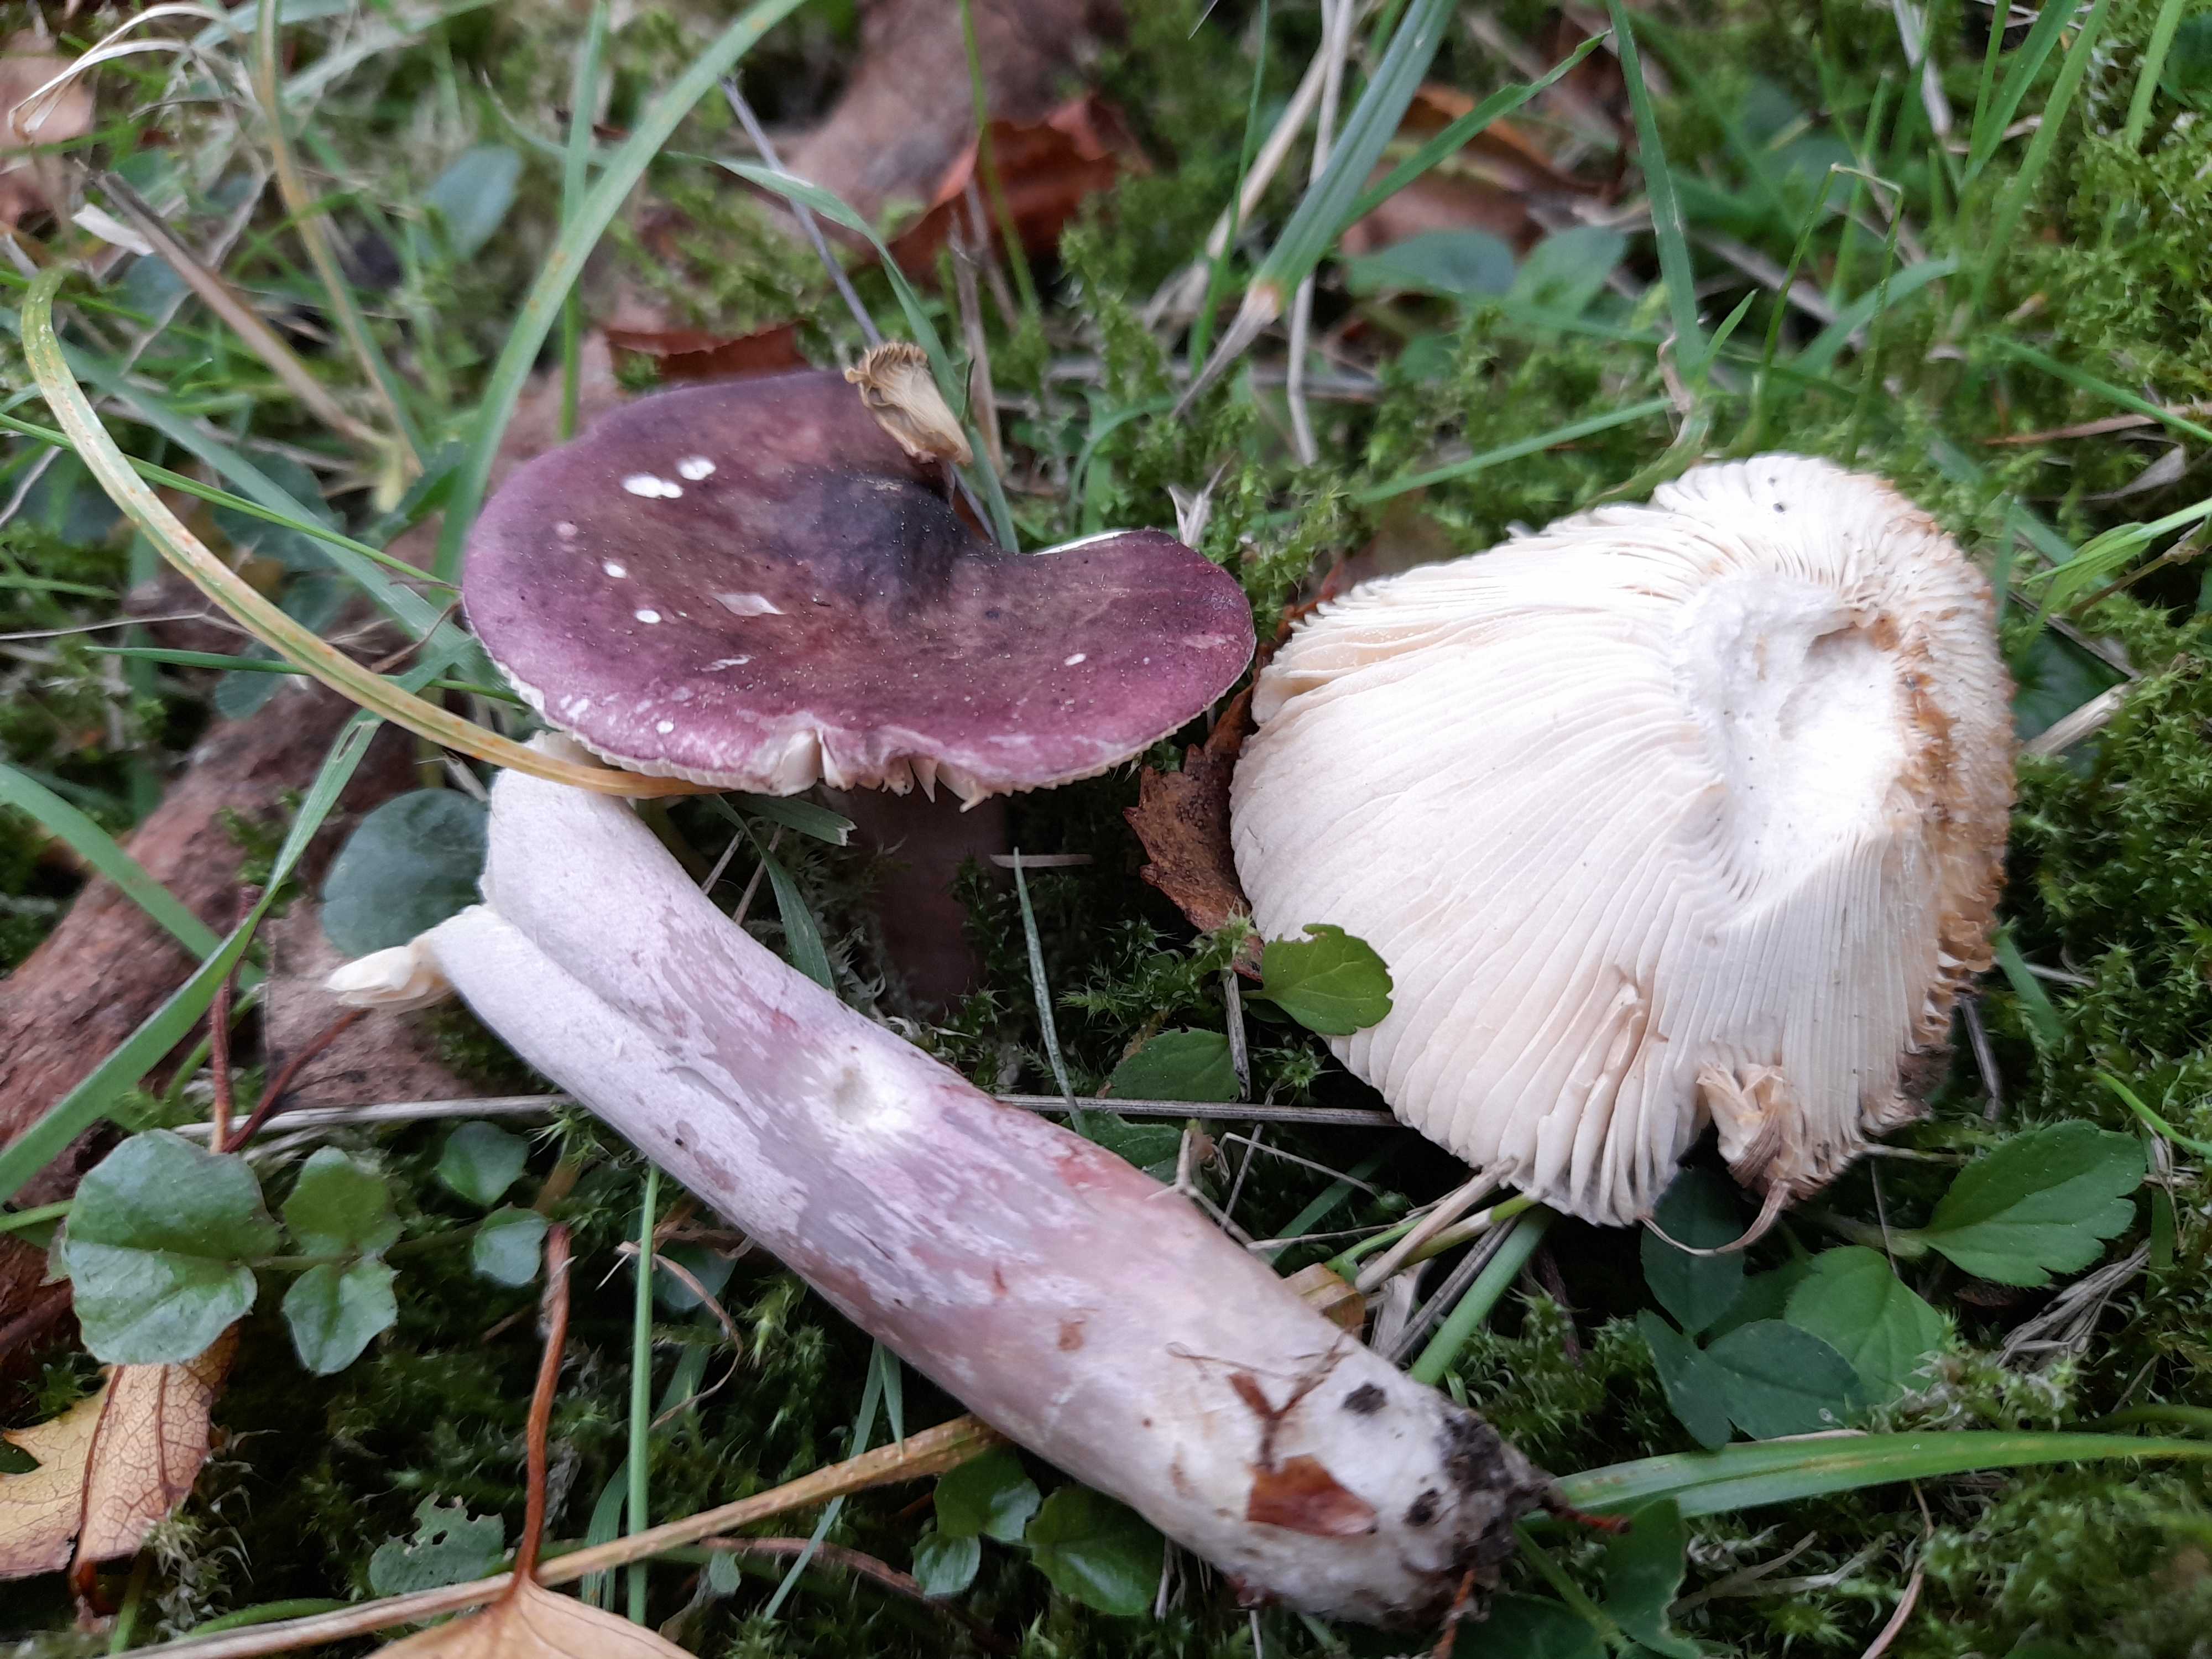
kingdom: Fungi
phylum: Basidiomycota
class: Agaricomycetes
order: Russulales
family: Russulaceae
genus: Russula
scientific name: Russula queletii
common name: Quélets skørhat
